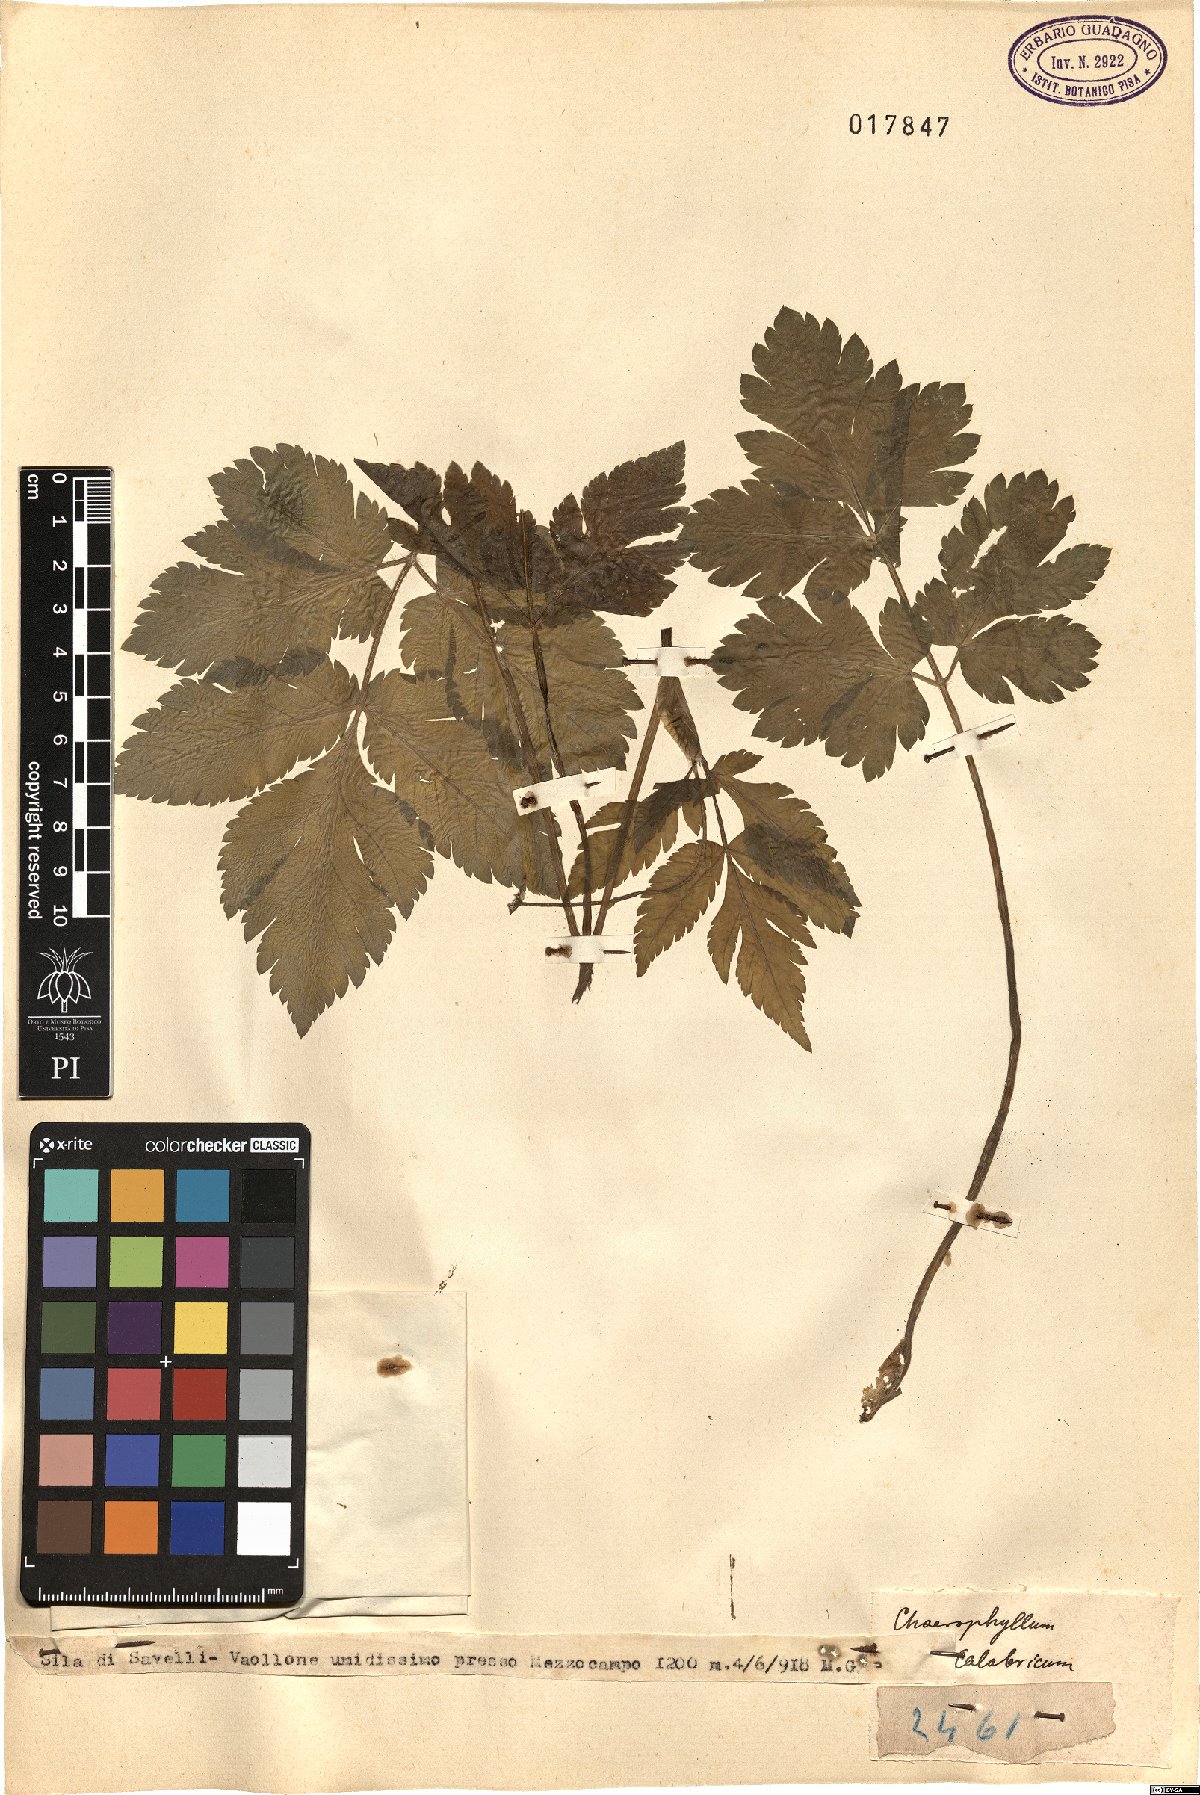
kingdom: Plantae
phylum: Tracheophyta
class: Magnoliopsida
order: Apiales
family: Apiaceae
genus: Chaerophyllum
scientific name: Chaerophyllum hirsutum
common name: Hairy chervil
